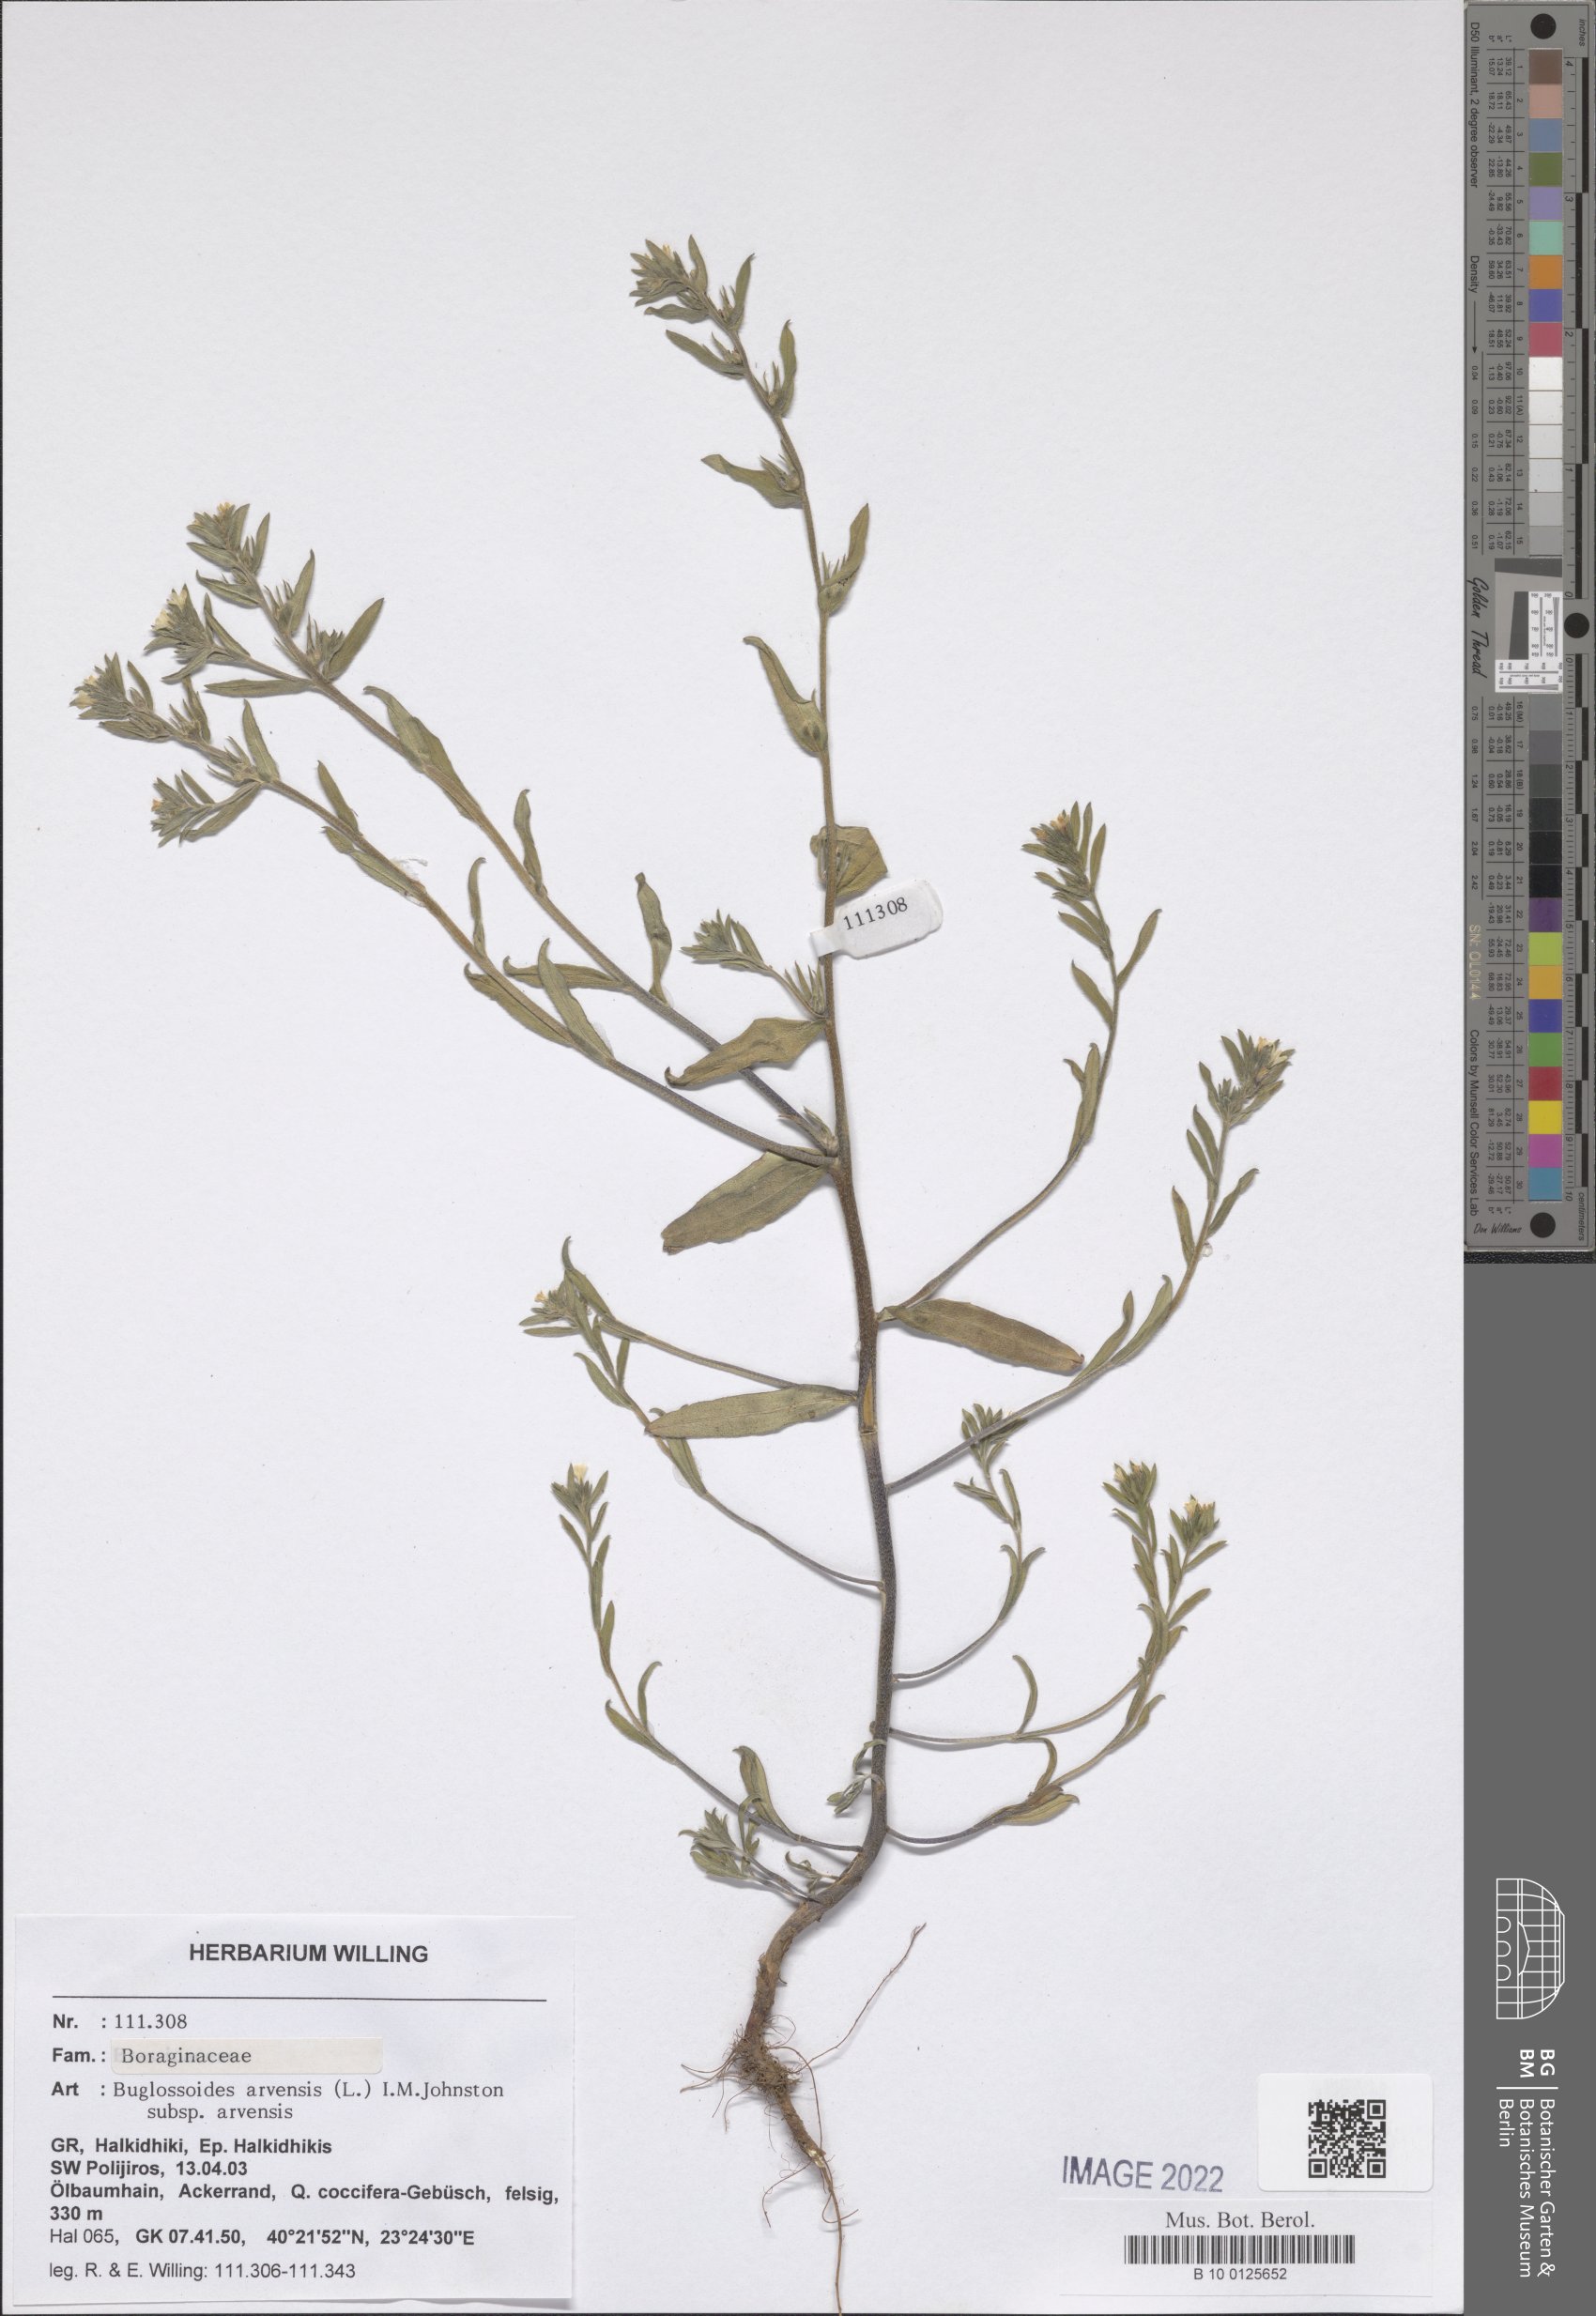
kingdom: Plantae
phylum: Tracheophyta
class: Magnoliopsida
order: Boraginales
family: Boraginaceae
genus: Buglossoides
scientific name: Buglossoides arvensis
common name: Corn gromwell
